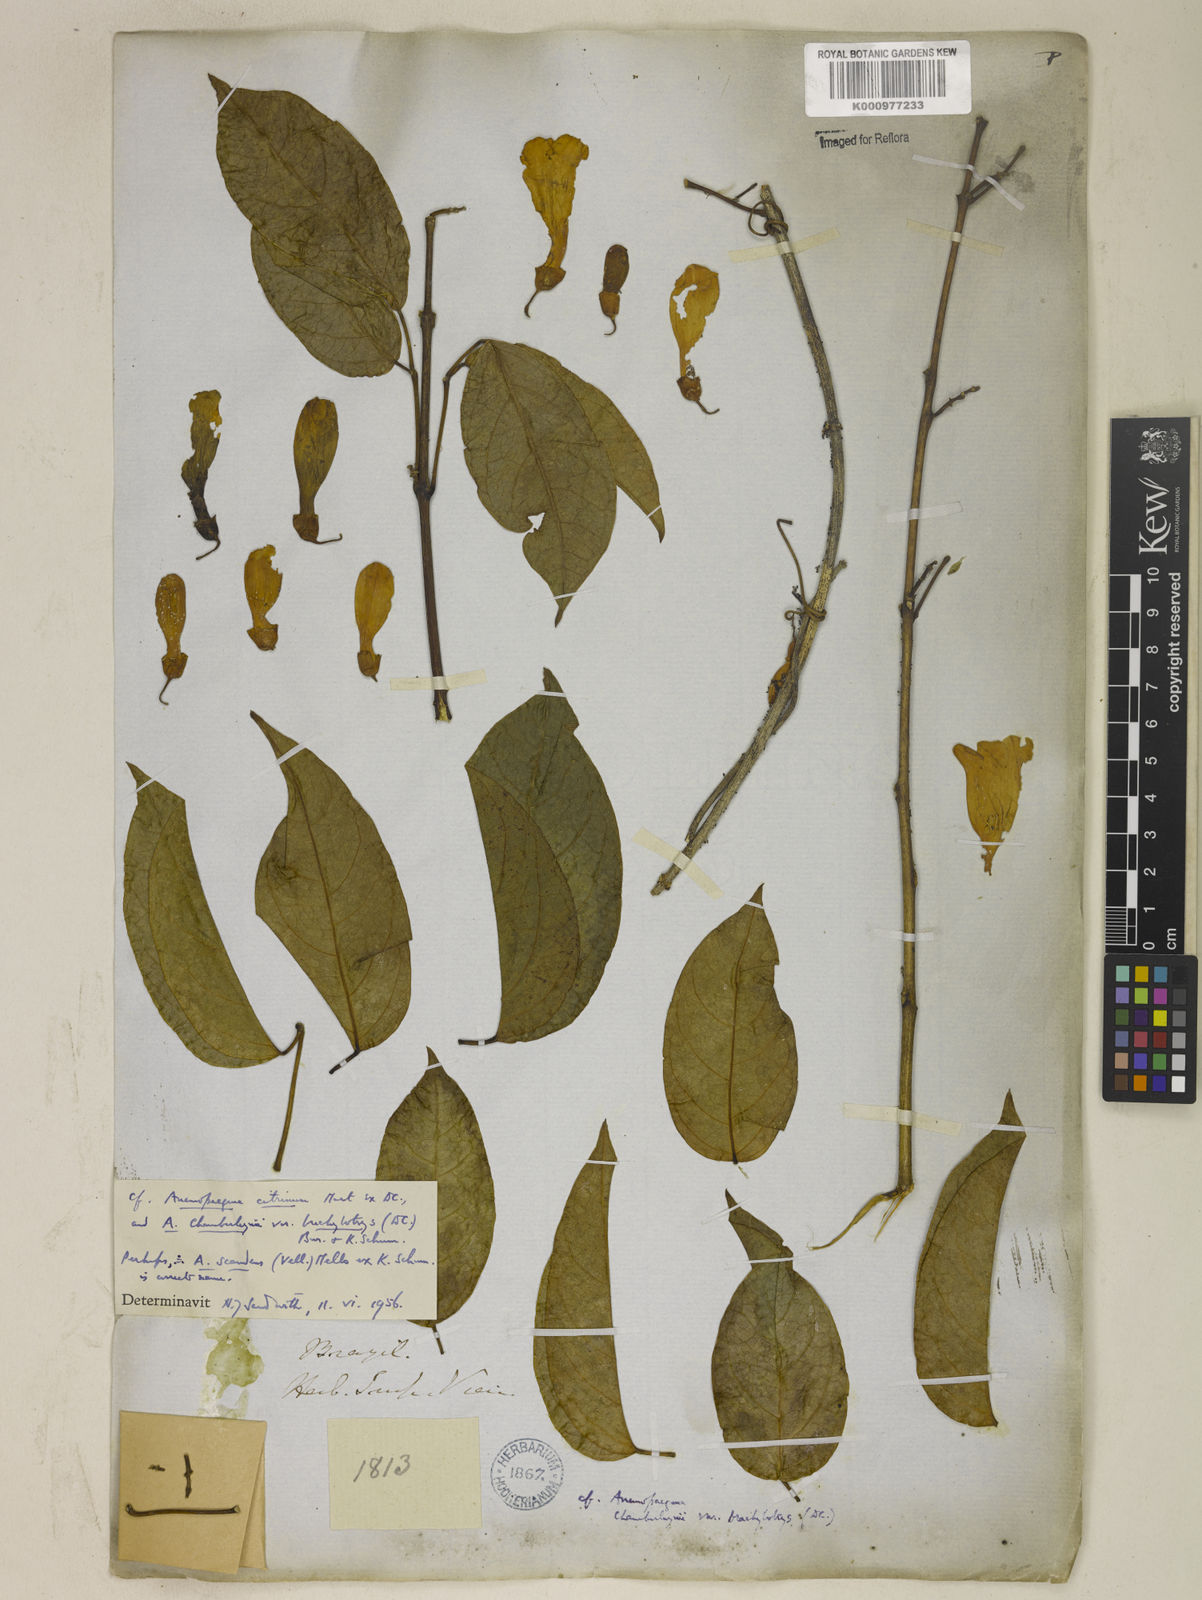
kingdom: Plantae
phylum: Tracheophyta
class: Magnoliopsida
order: Lamiales
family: Bignoniaceae
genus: Anemopaegma
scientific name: Anemopaegma citrinum
